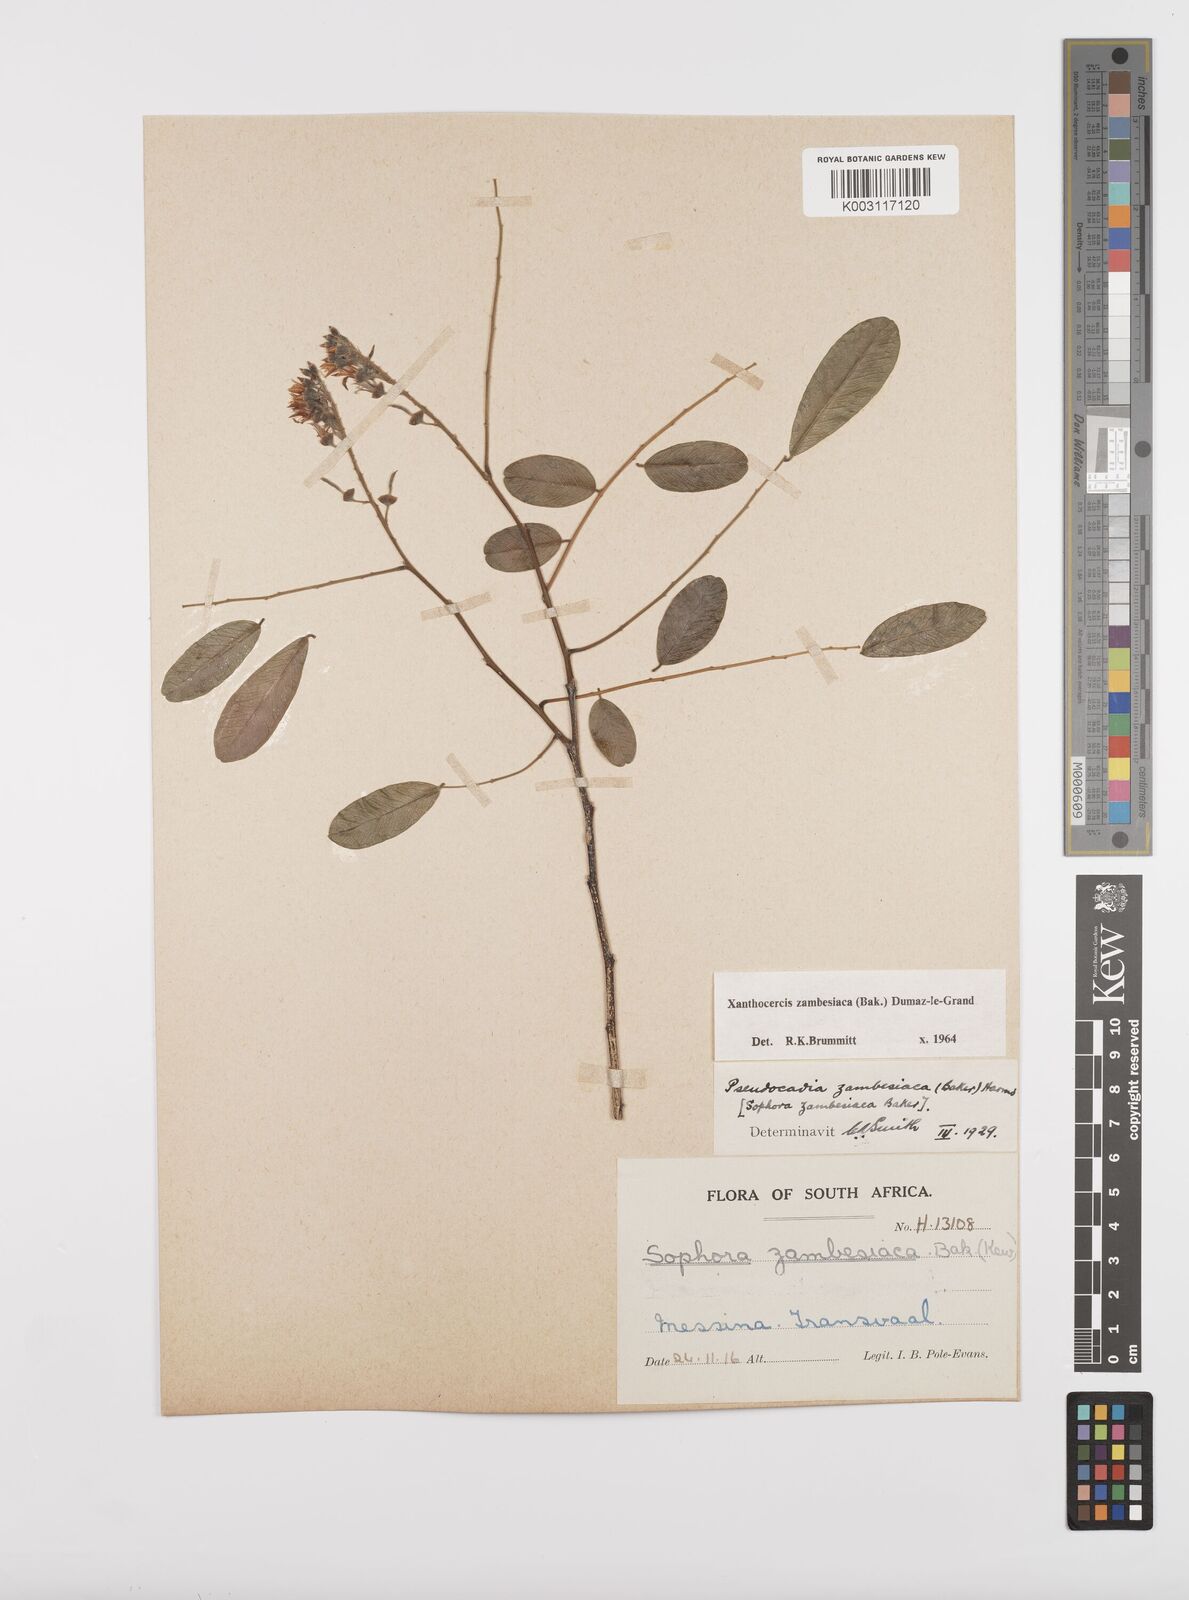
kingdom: Plantae
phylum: Tracheophyta
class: Magnoliopsida
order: Fabales
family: Fabaceae
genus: Xanthocercis
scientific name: Xanthocercis zambesiaca
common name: Nyala-tree
